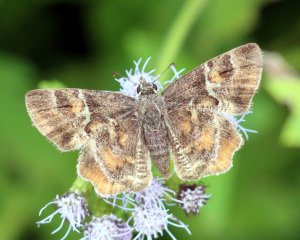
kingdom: Animalia
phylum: Arthropoda
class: Insecta
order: Lepidoptera
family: Hesperiidae
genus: Systasea
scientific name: Systasea pulverulenta
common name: Texas Powdered-Skipper
